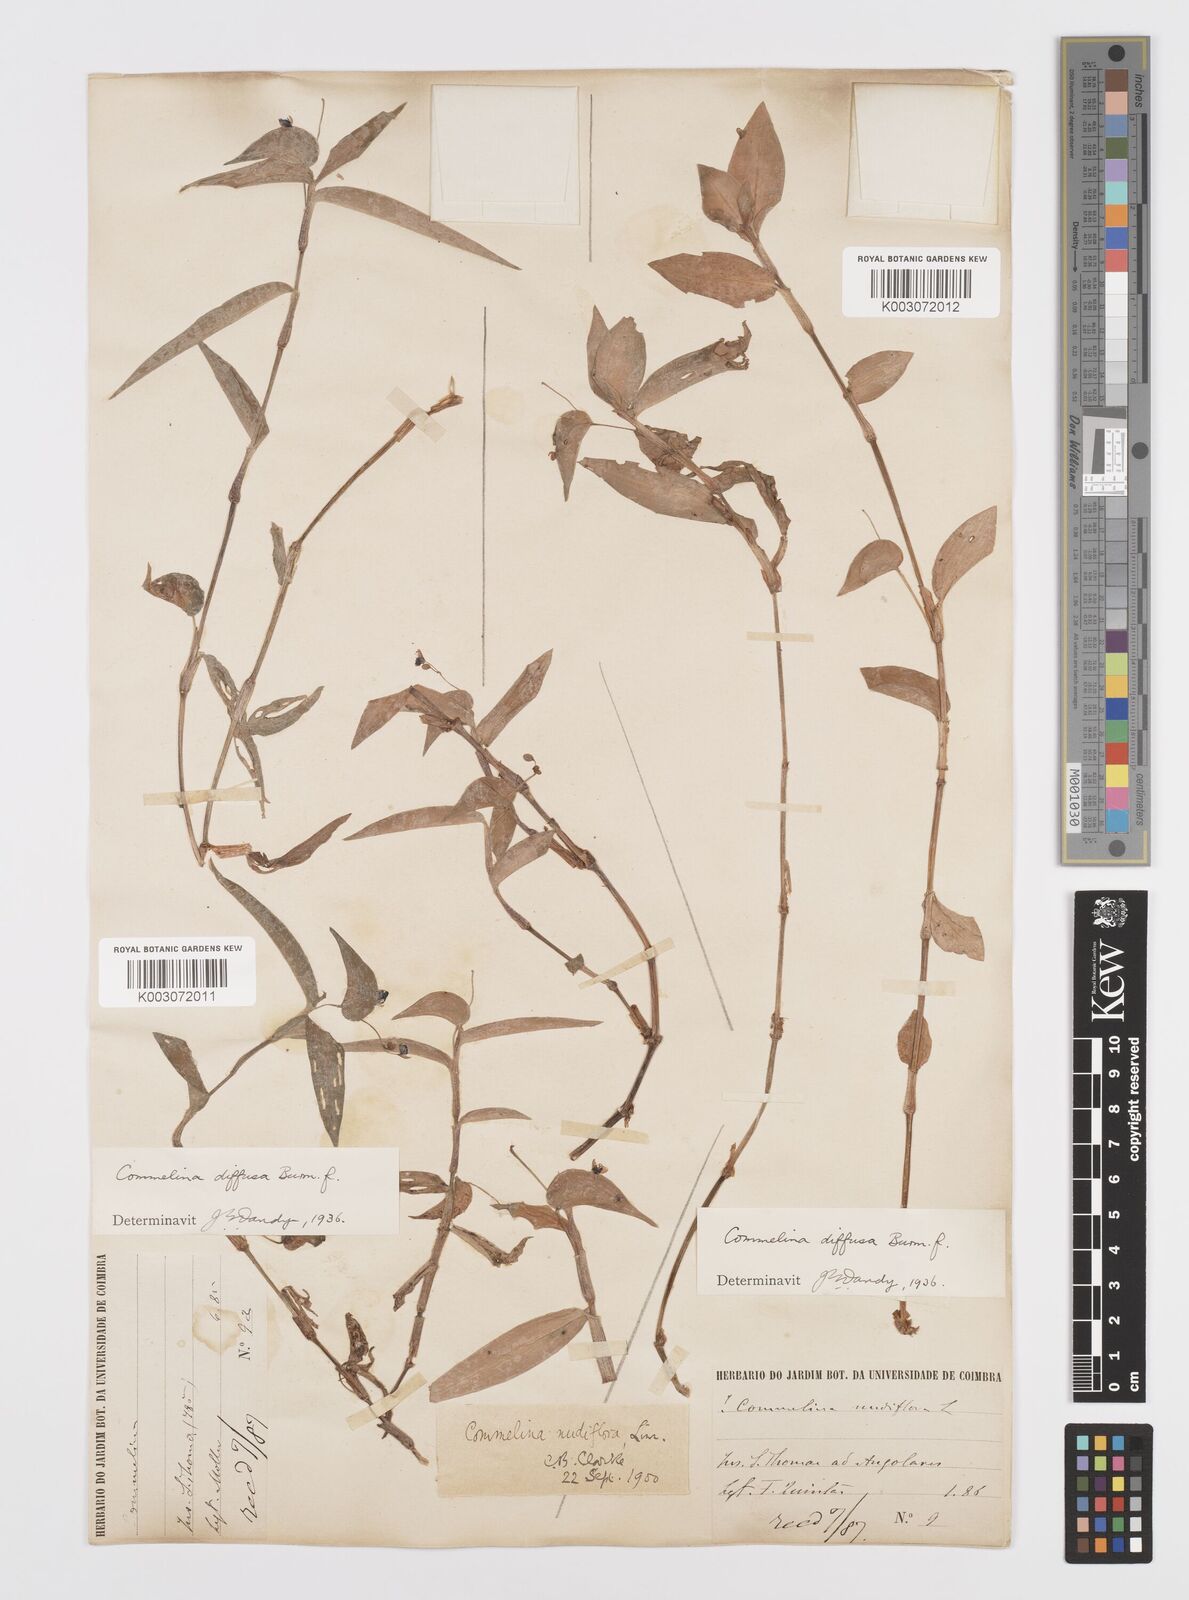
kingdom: Plantae
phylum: Tracheophyta
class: Liliopsida
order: Commelinales
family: Commelinaceae
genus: Commelina
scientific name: Commelina diffusa
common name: Climbing dayflower
